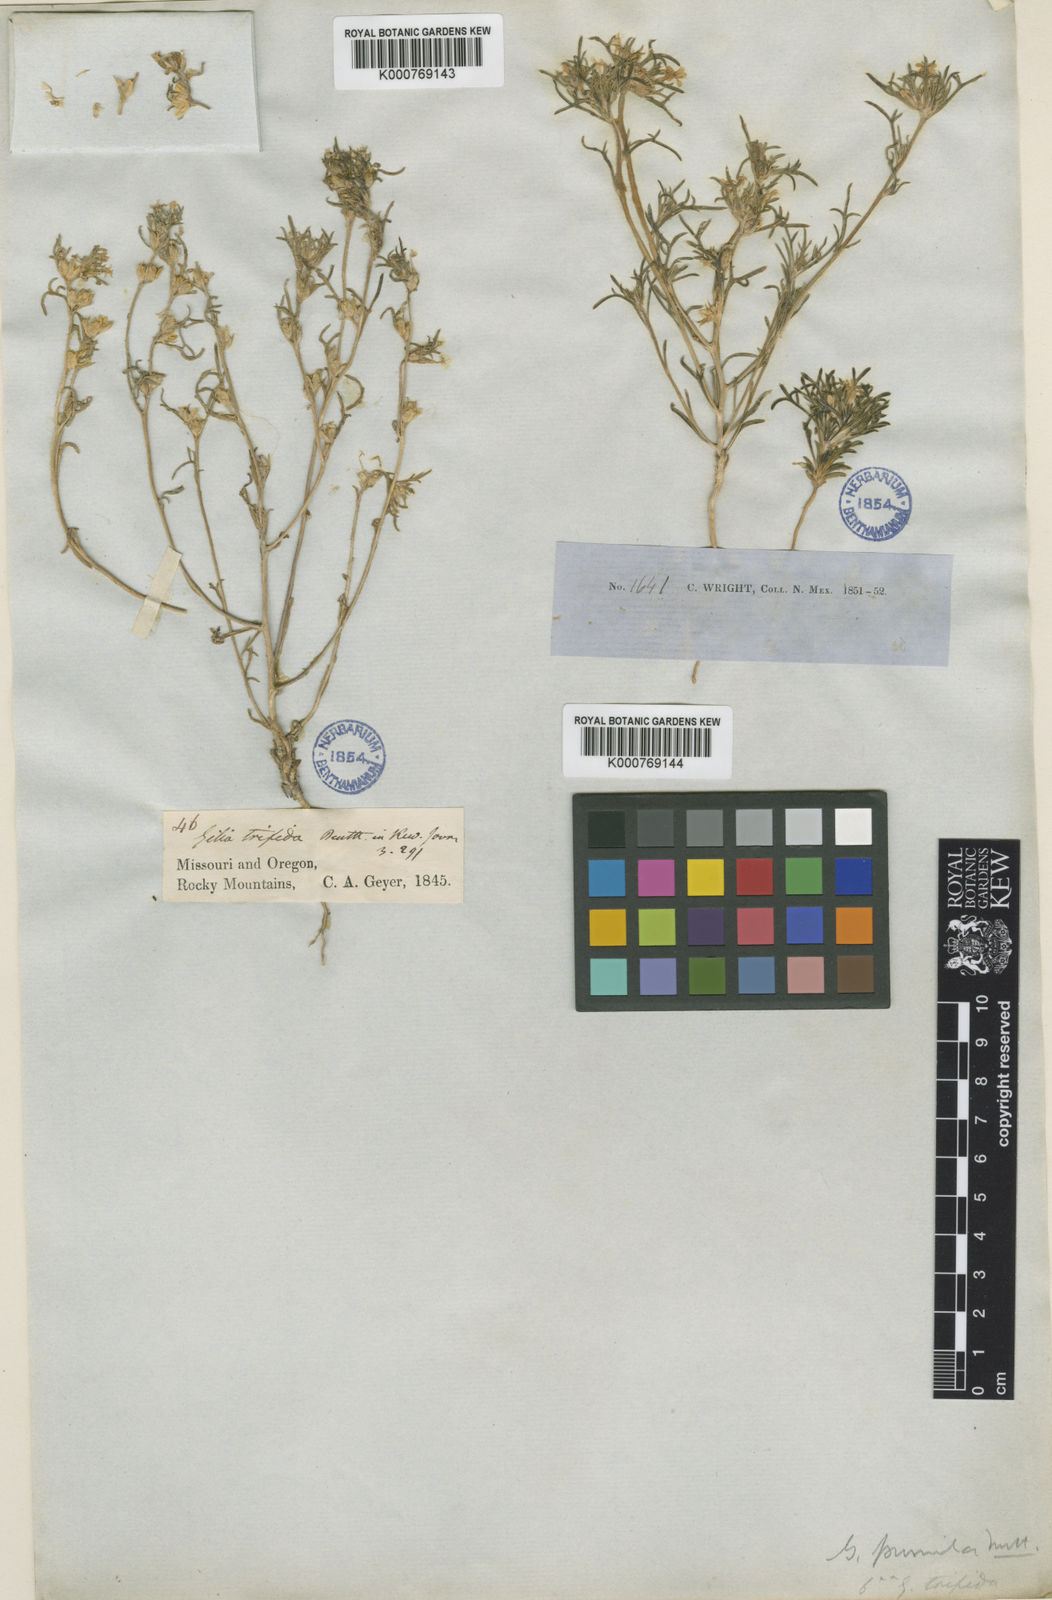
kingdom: Plantae
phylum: Tracheophyta
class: Magnoliopsida
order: Ericales
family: Polemoniaceae
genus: Ipomopsis
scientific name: Ipomopsis pumila
